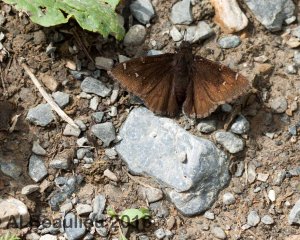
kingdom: Animalia
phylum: Arthropoda
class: Insecta
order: Lepidoptera
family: Hesperiidae
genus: Autochton
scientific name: Autochton
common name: Northern Cloudywing
